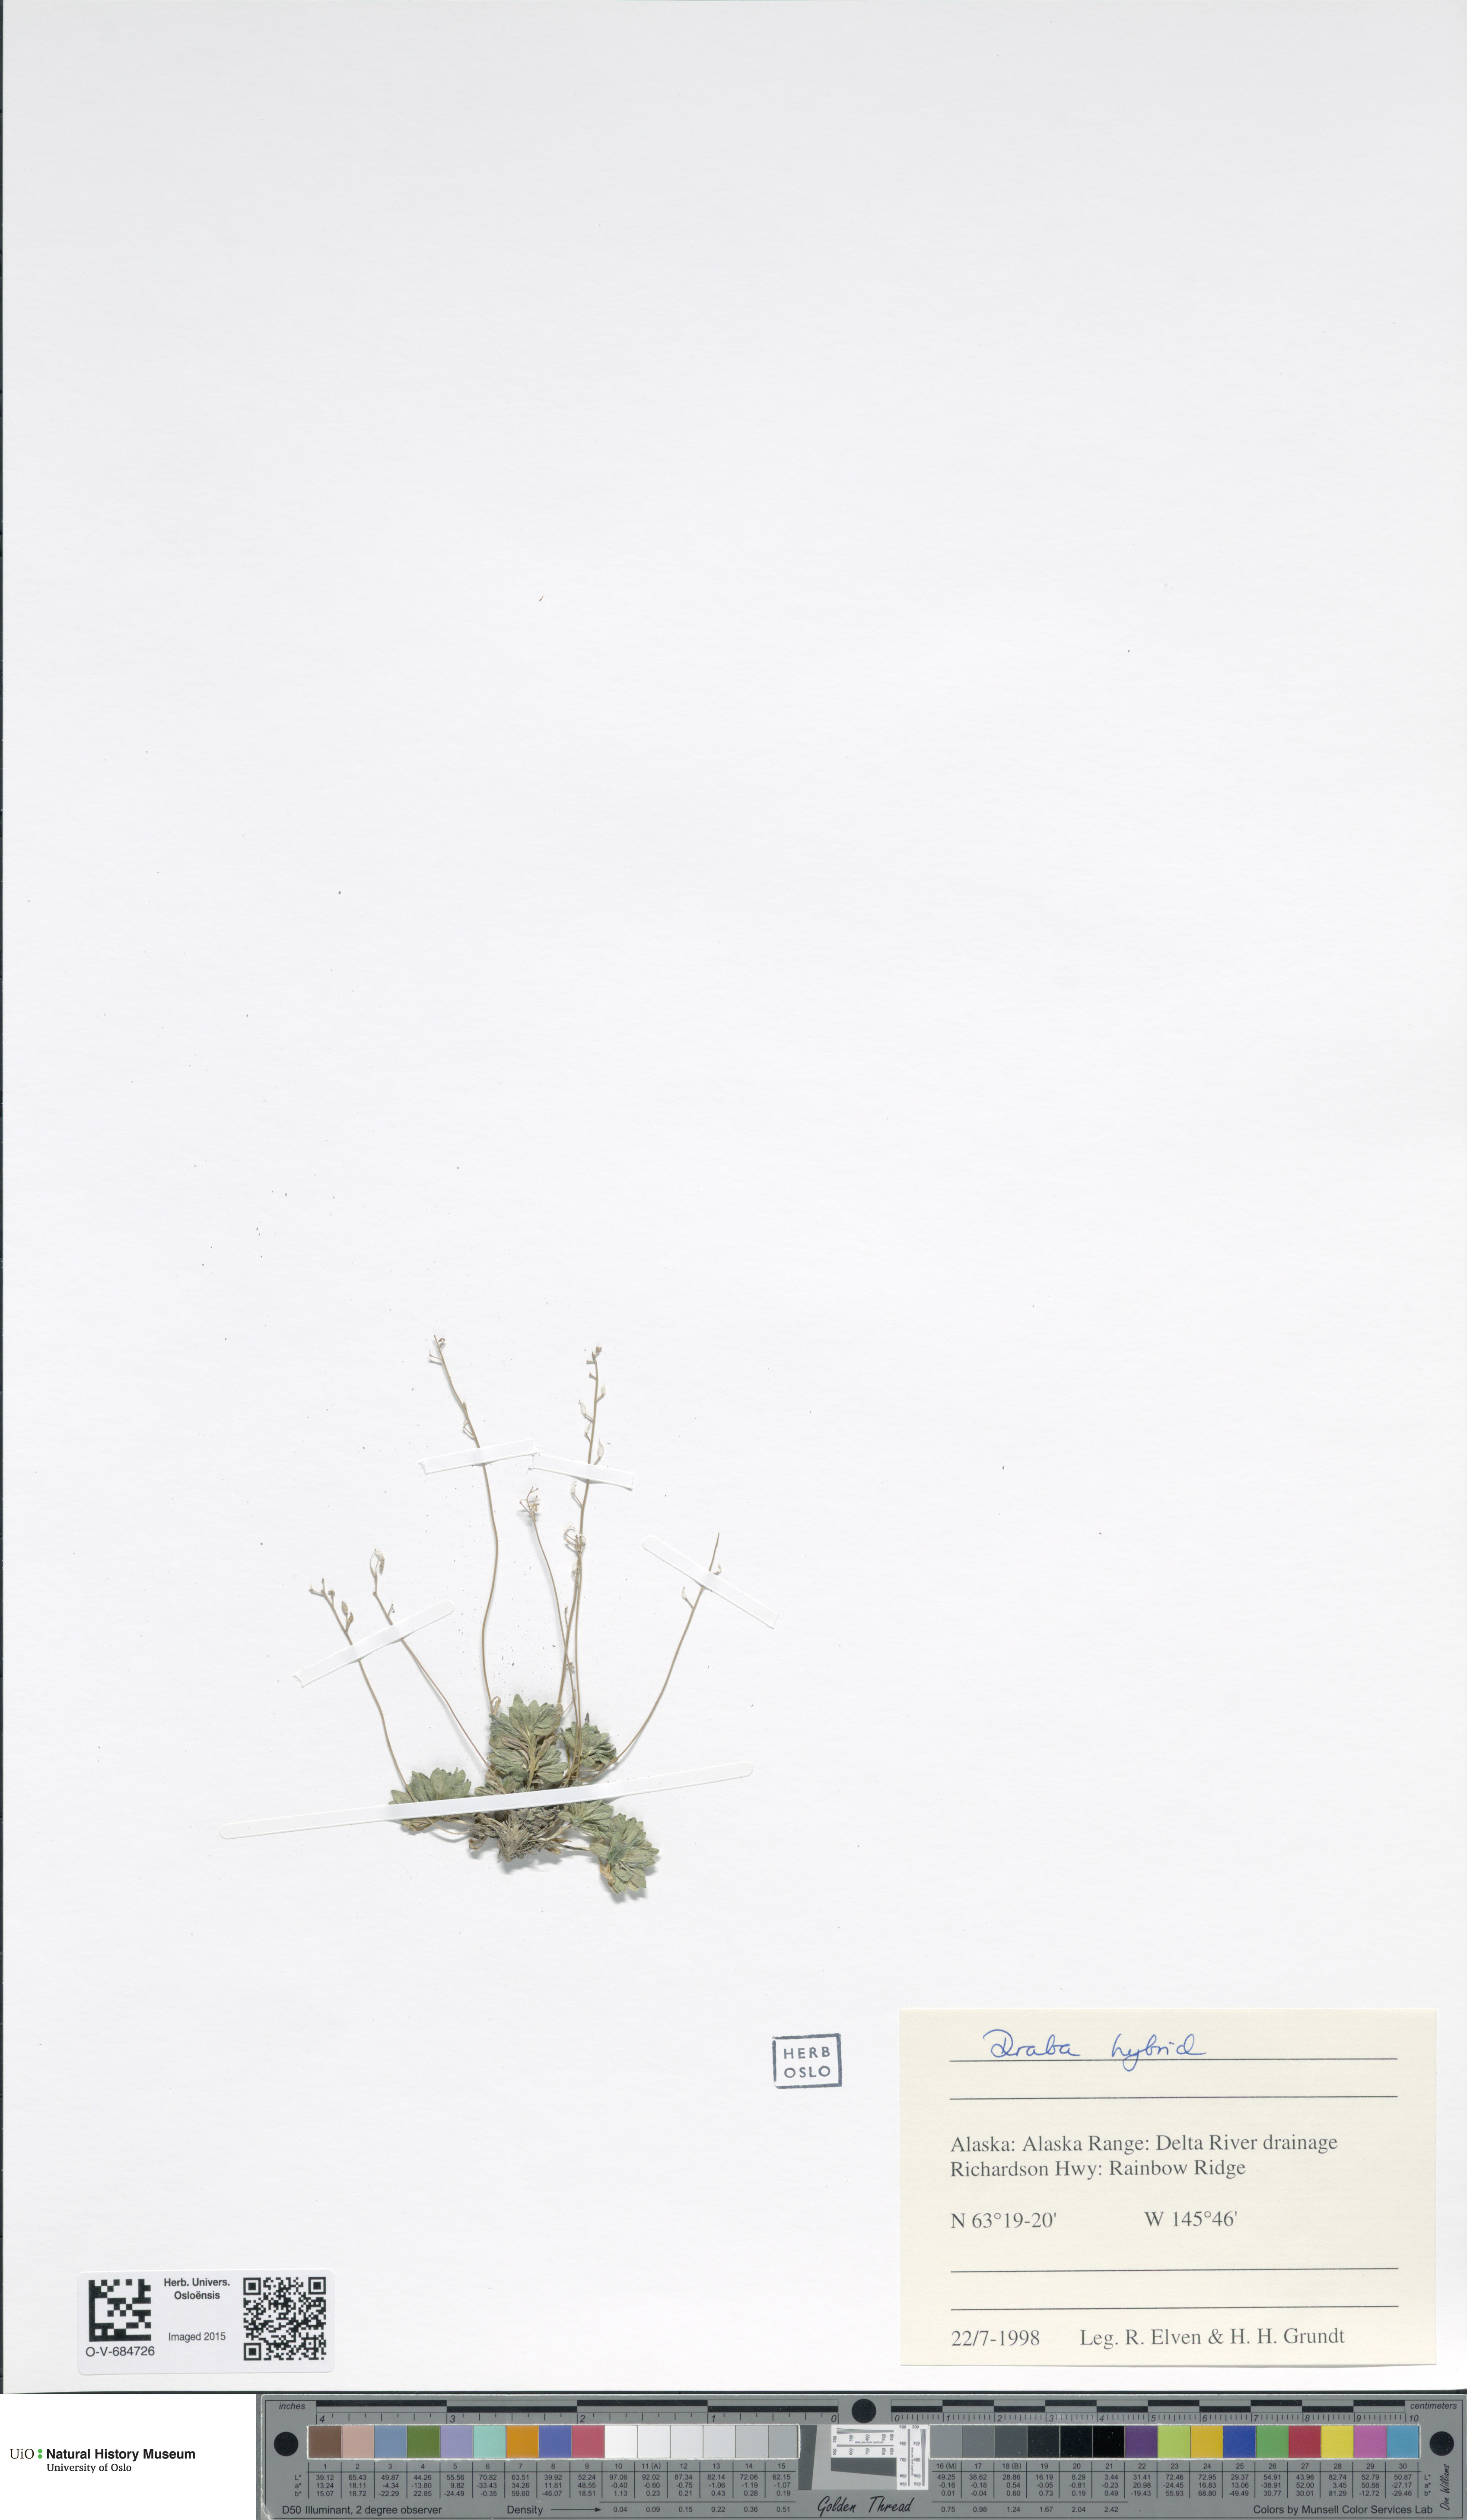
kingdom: Plantae
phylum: Tracheophyta
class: Magnoliopsida
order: Brassicales
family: Brassicaceae
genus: Draba
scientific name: Draba
